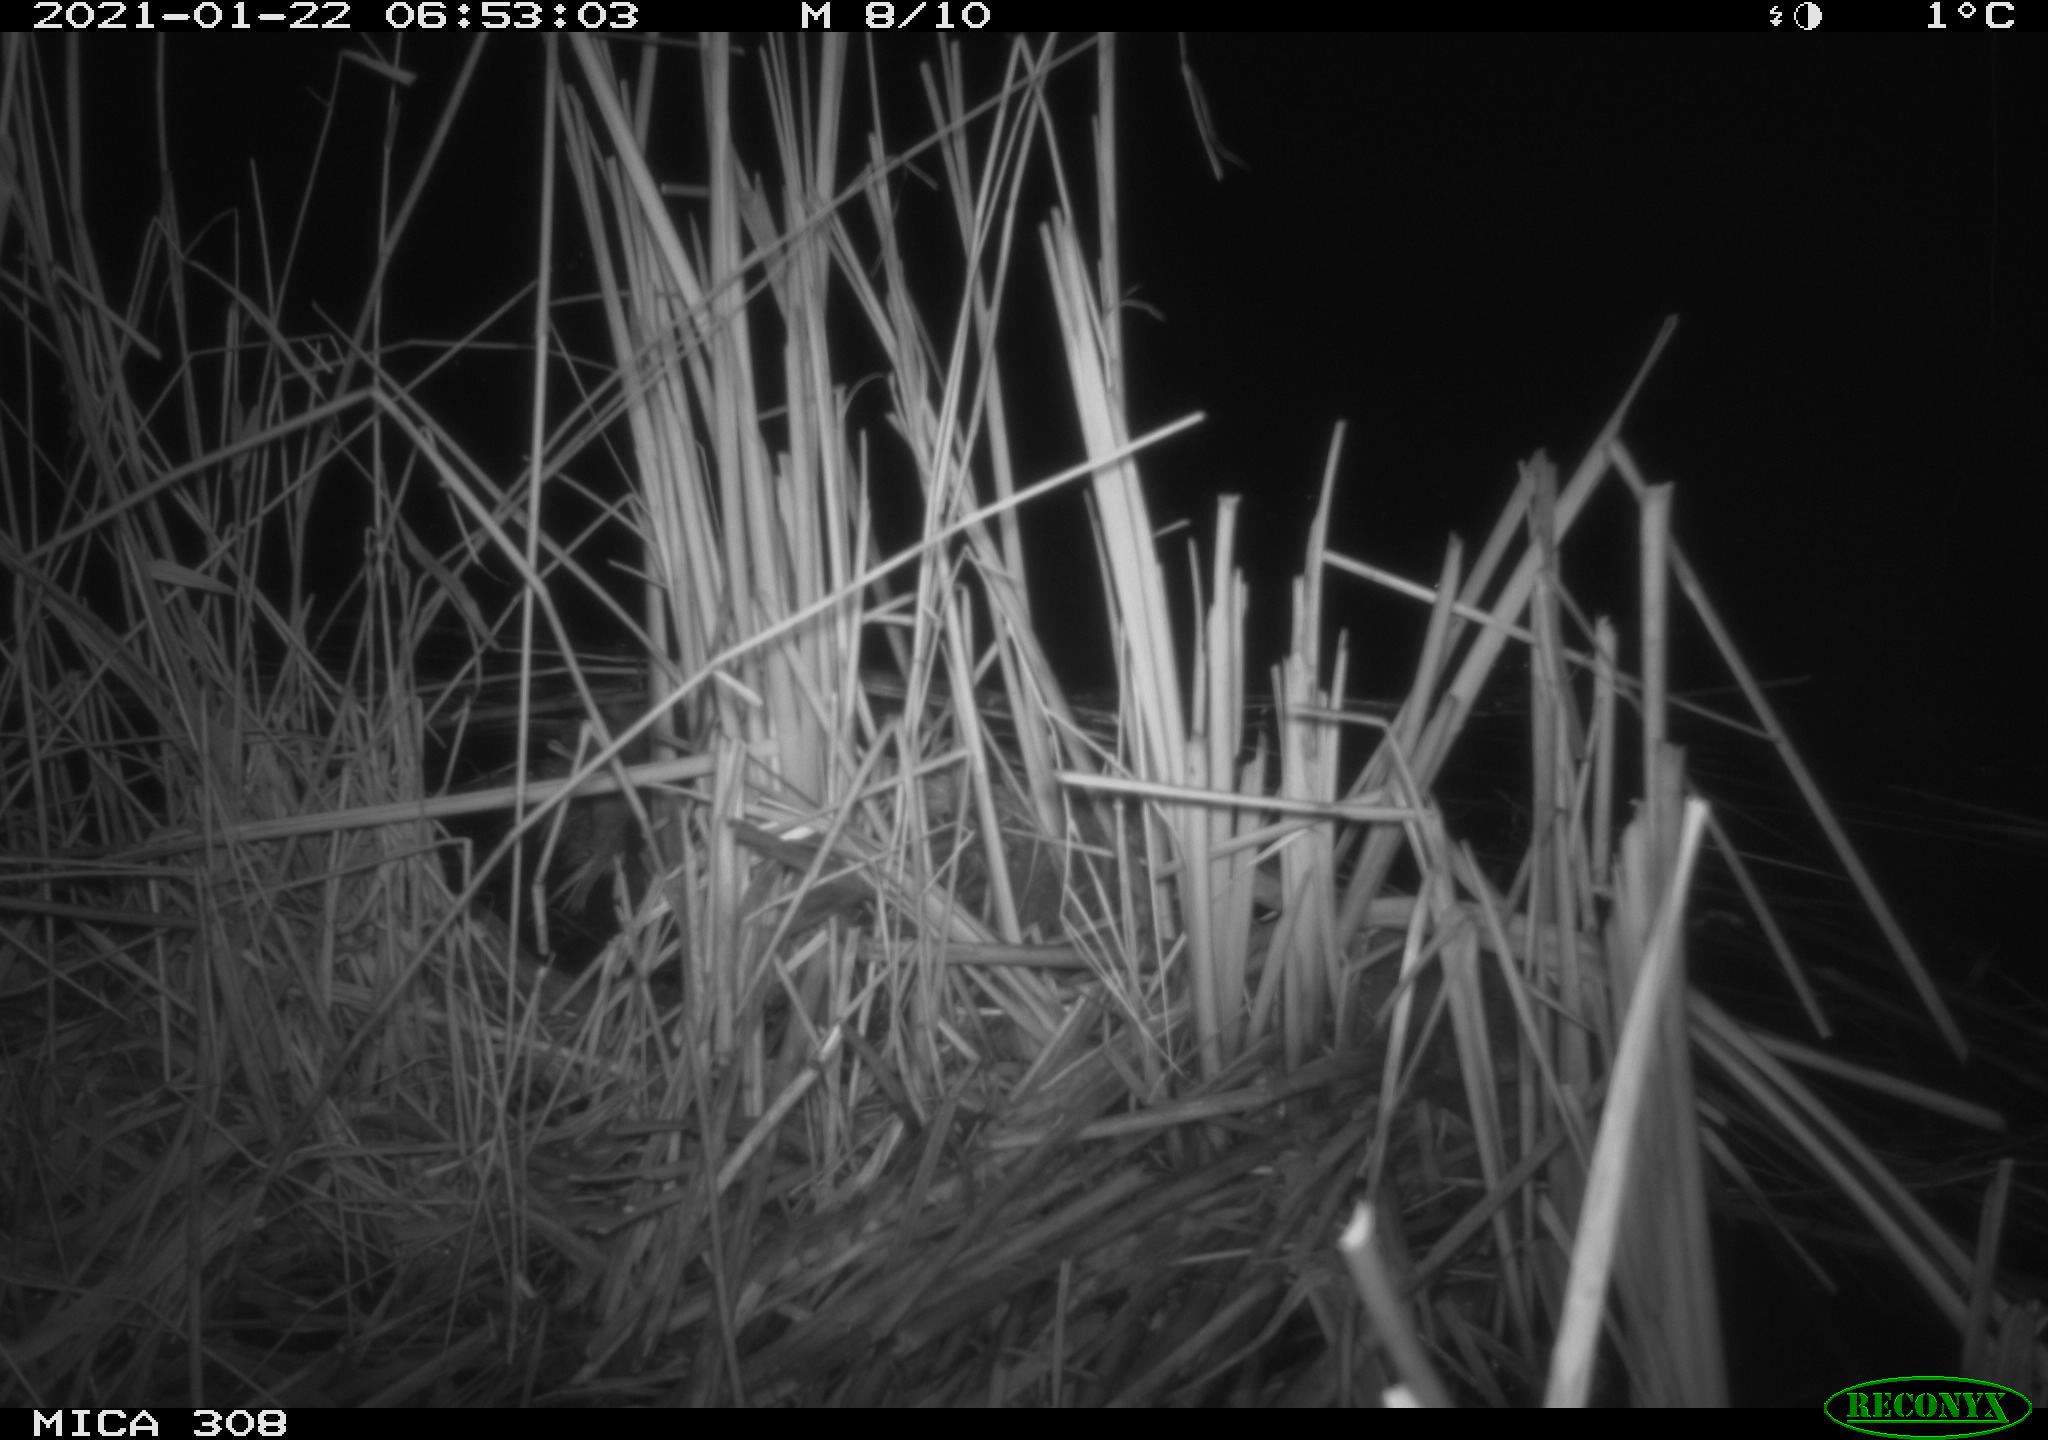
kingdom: Animalia
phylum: Chordata
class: Aves
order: Gruiformes
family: Rallidae
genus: Gallinula
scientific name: Gallinula chloropus
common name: Common moorhen
